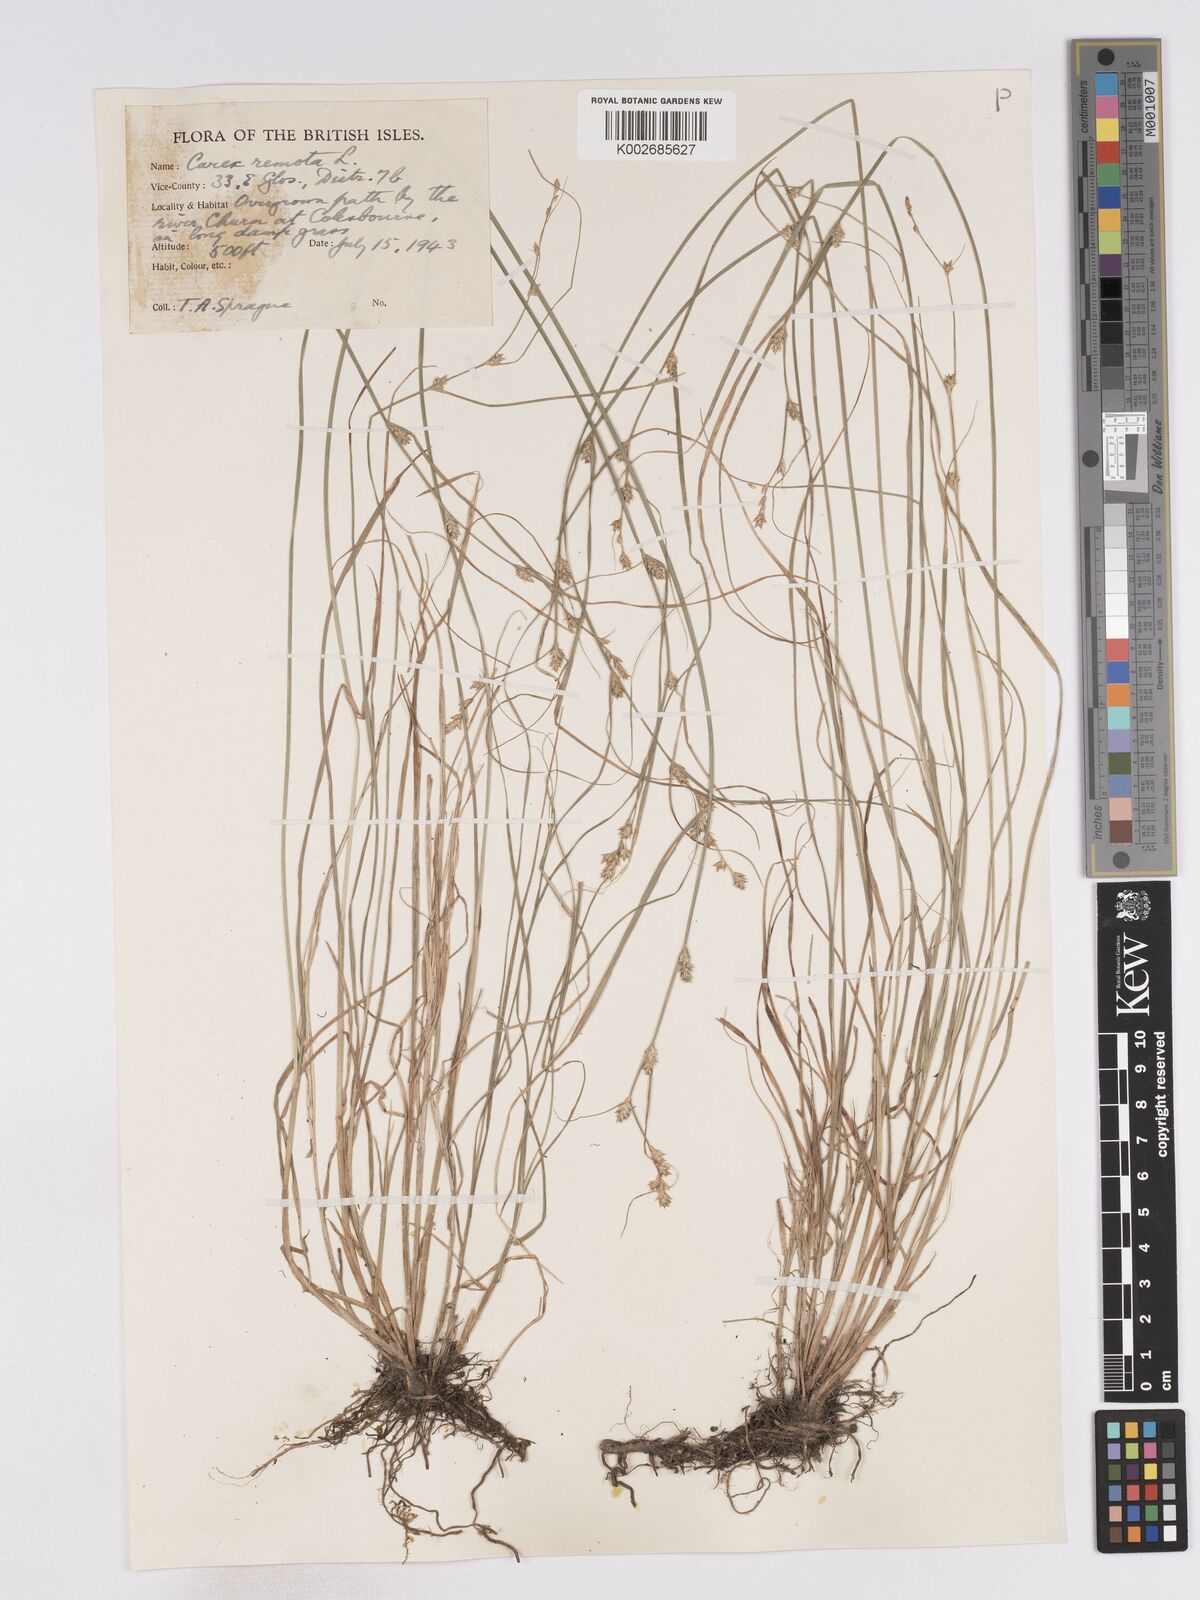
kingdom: Plantae
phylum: Tracheophyta
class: Liliopsida
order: Poales
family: Cyperaceae
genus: Carex
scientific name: Carex remota
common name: Remote sedge
